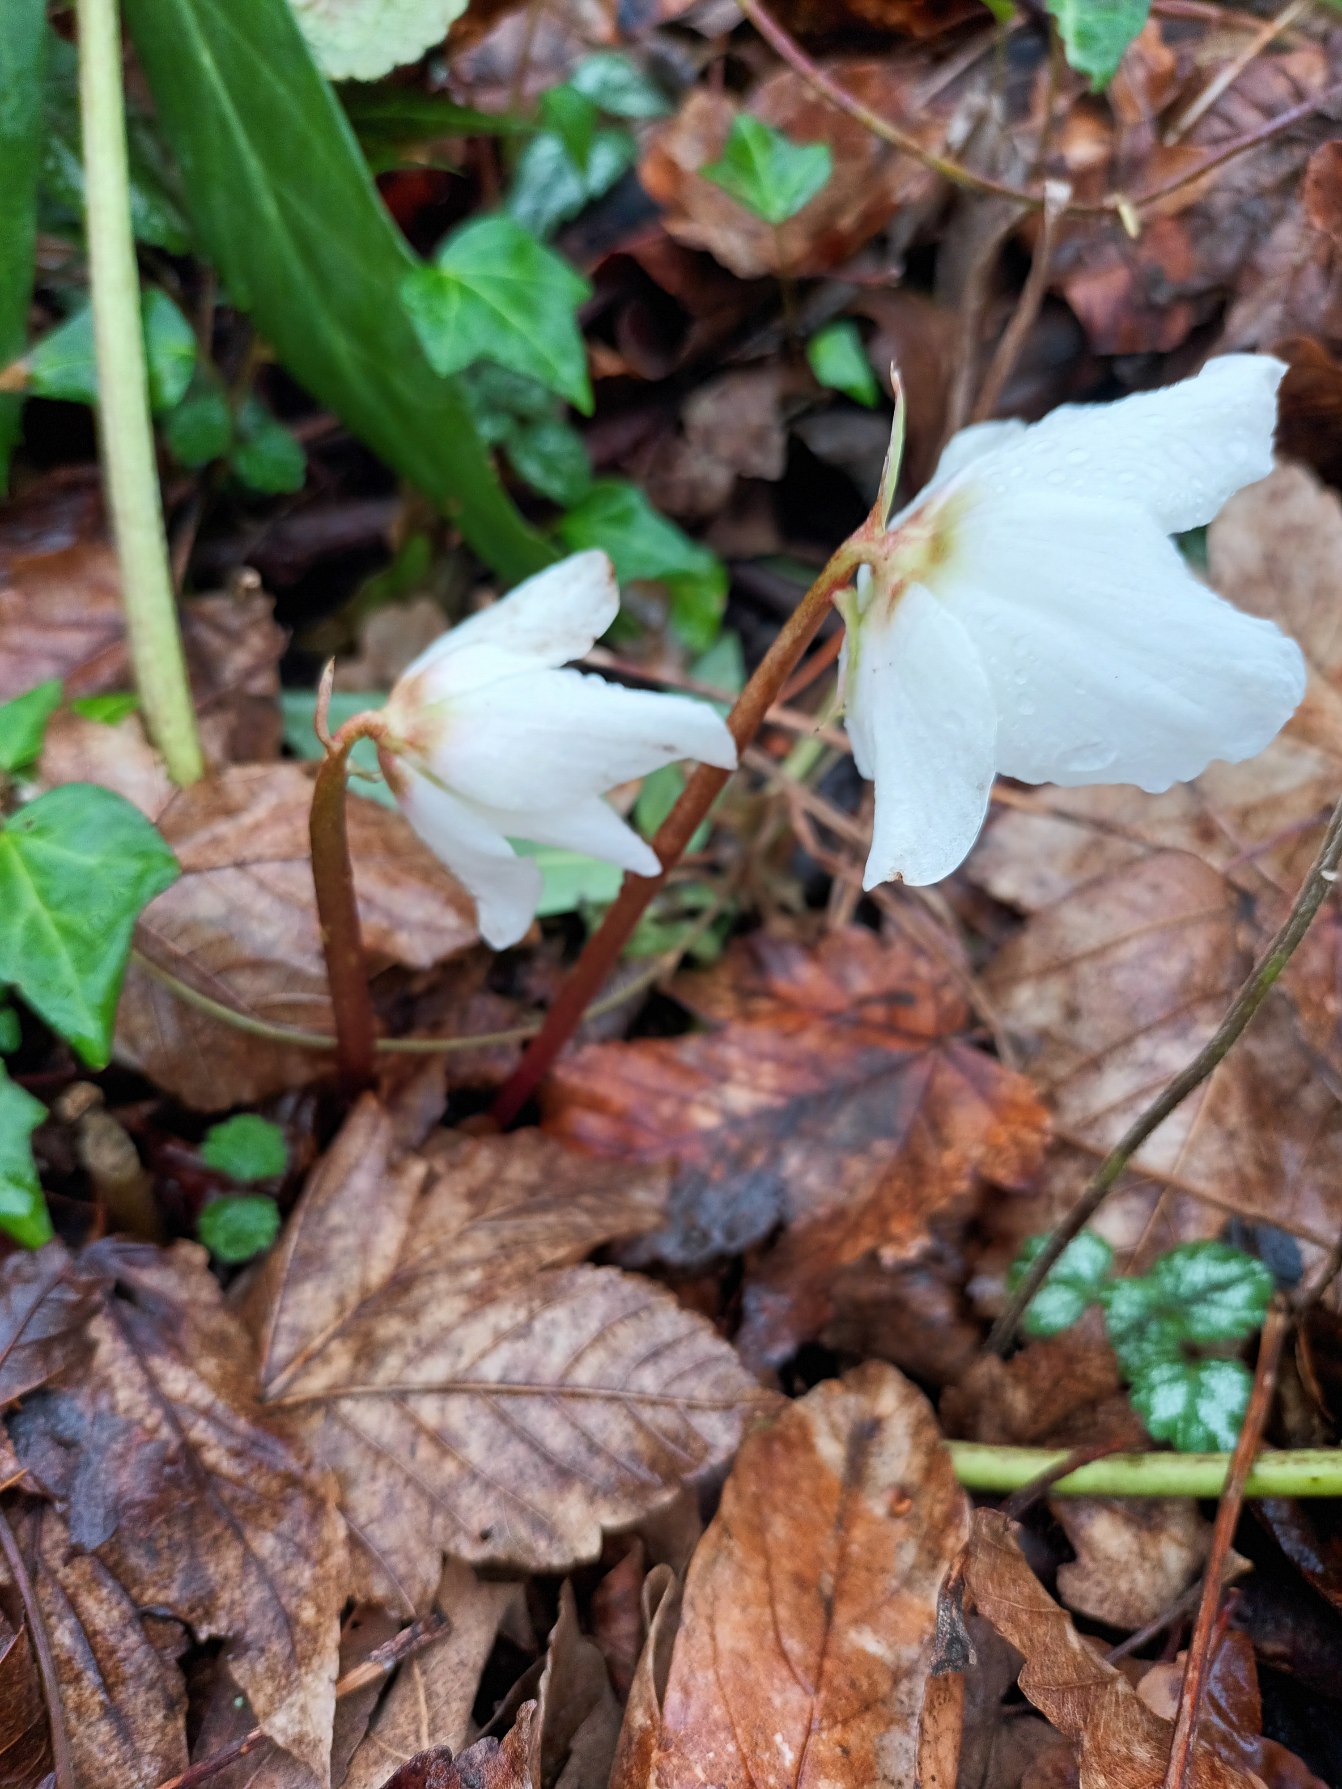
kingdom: Plantae
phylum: Tracheophyta
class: Magnoliopsida
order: Ranunculales
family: Ranunculaceae
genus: Helleborus
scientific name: Helleborus niger
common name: Hvid julerose
